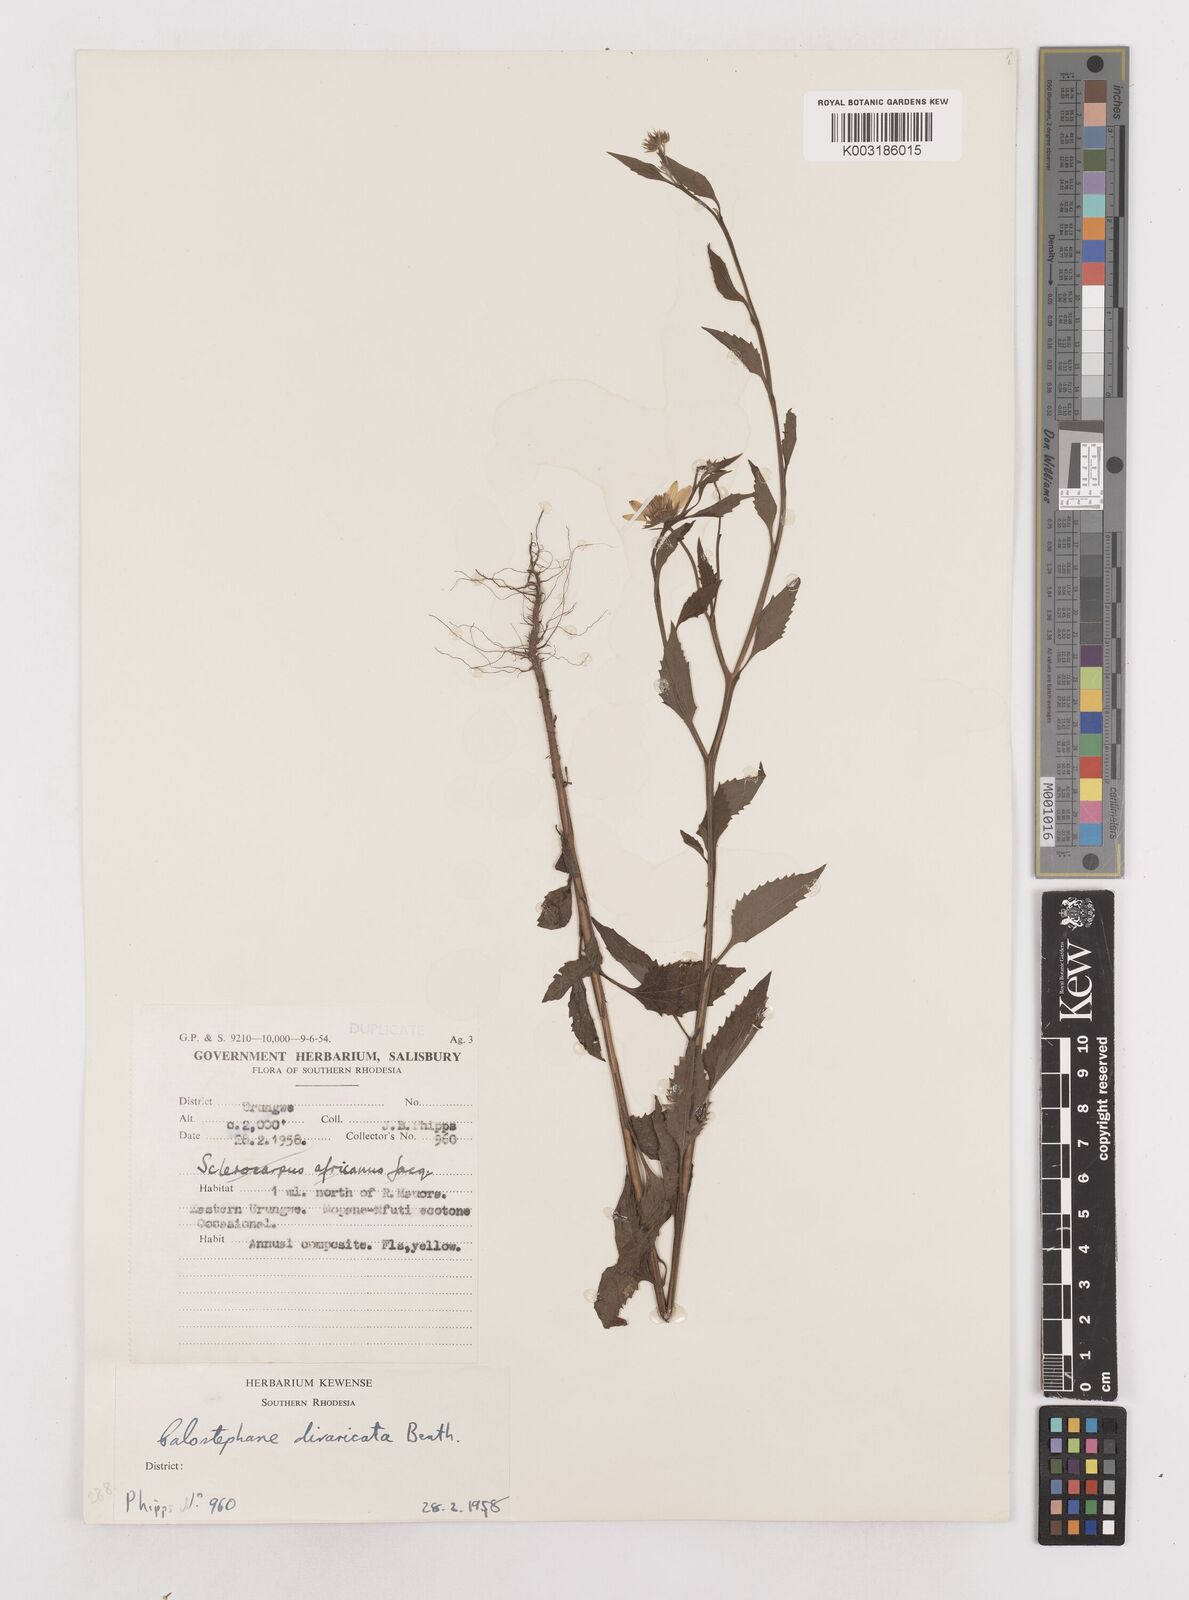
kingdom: Plantae
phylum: Tracheophyta
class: Magnoliopsida
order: Asterales
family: Asteraceae
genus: Calostephane
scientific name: Calostephane divaricata
